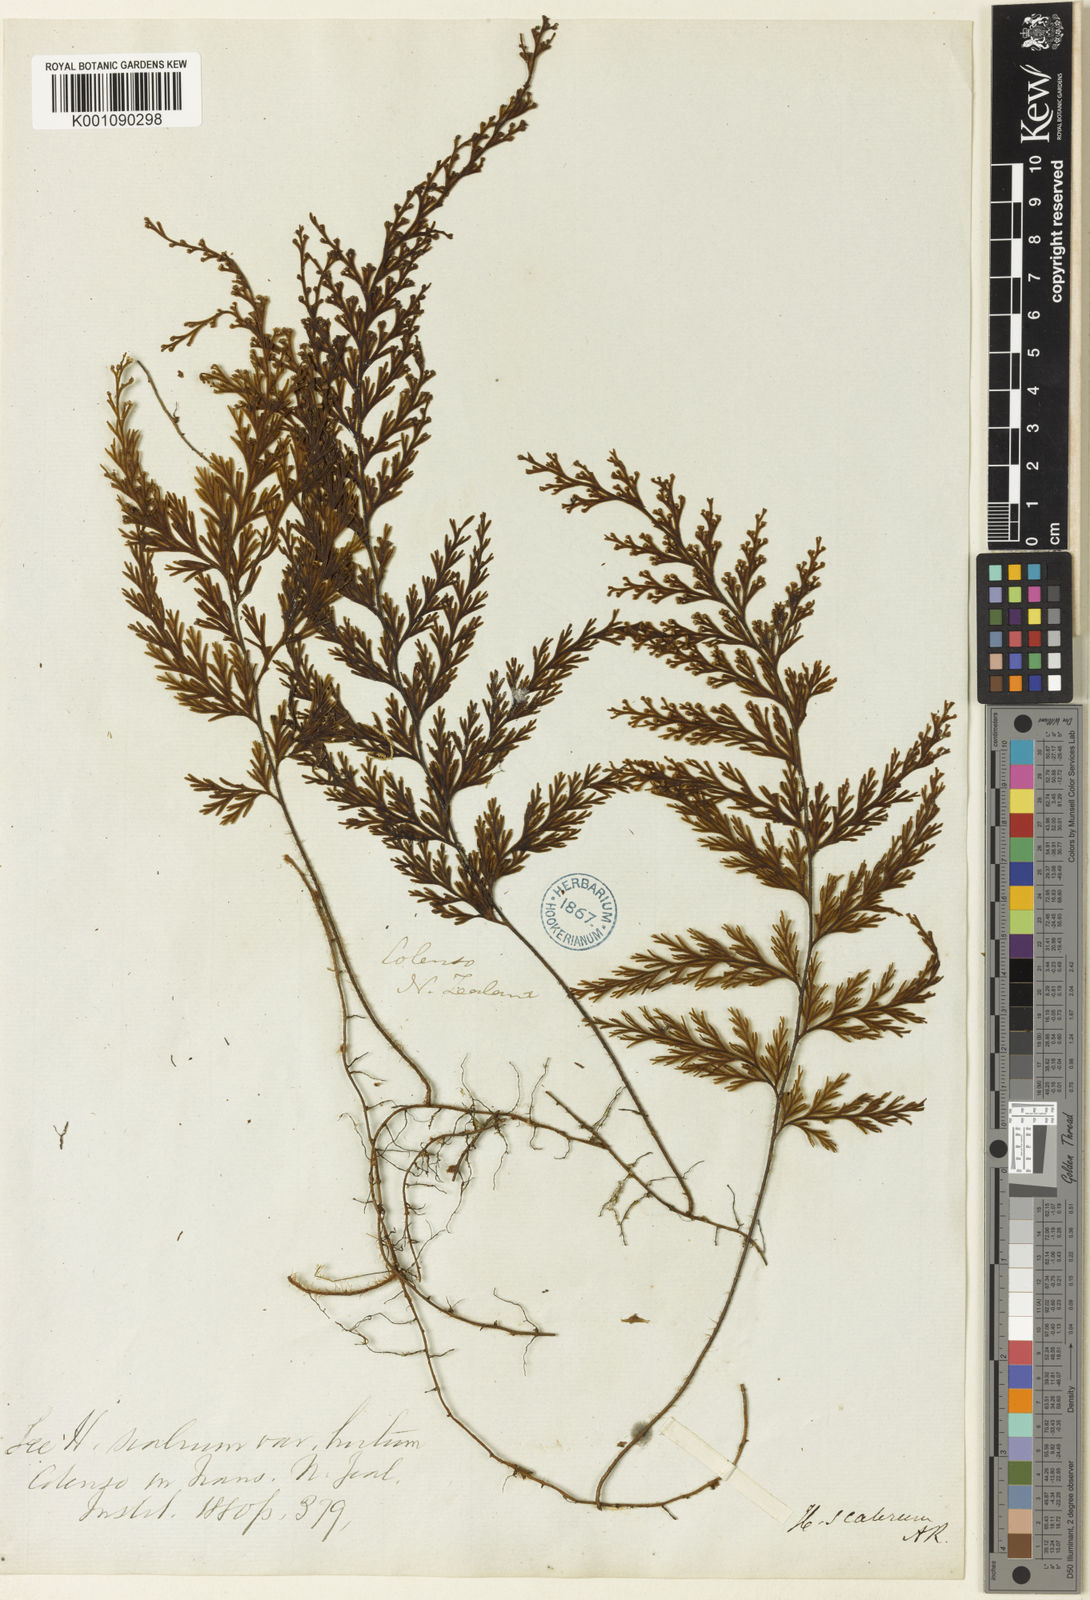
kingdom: Plantae
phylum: Tracheophyta
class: Polypodiopsida
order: Hymenophyllales
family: Hymenophyllaceae
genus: Hymenophyllum
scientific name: Hymenophyllum scabrum
